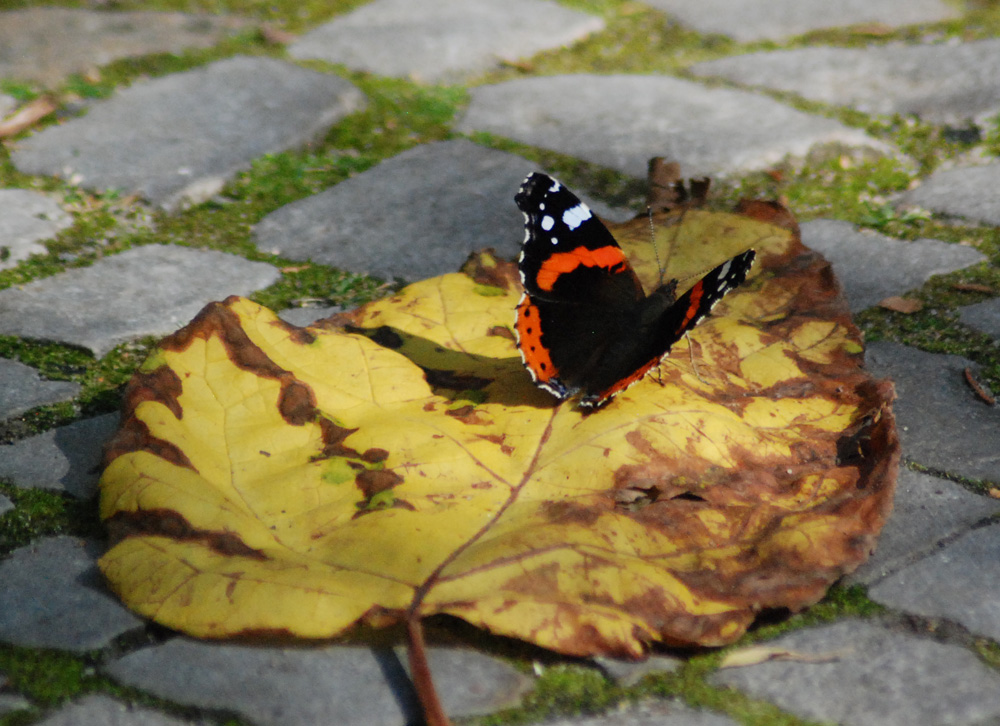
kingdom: Animalia
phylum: Arthropoda
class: Insecta
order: Lepidoptera
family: Nymphalidae
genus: Vanessa
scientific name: Vanessa atalanta
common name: Red admiral
